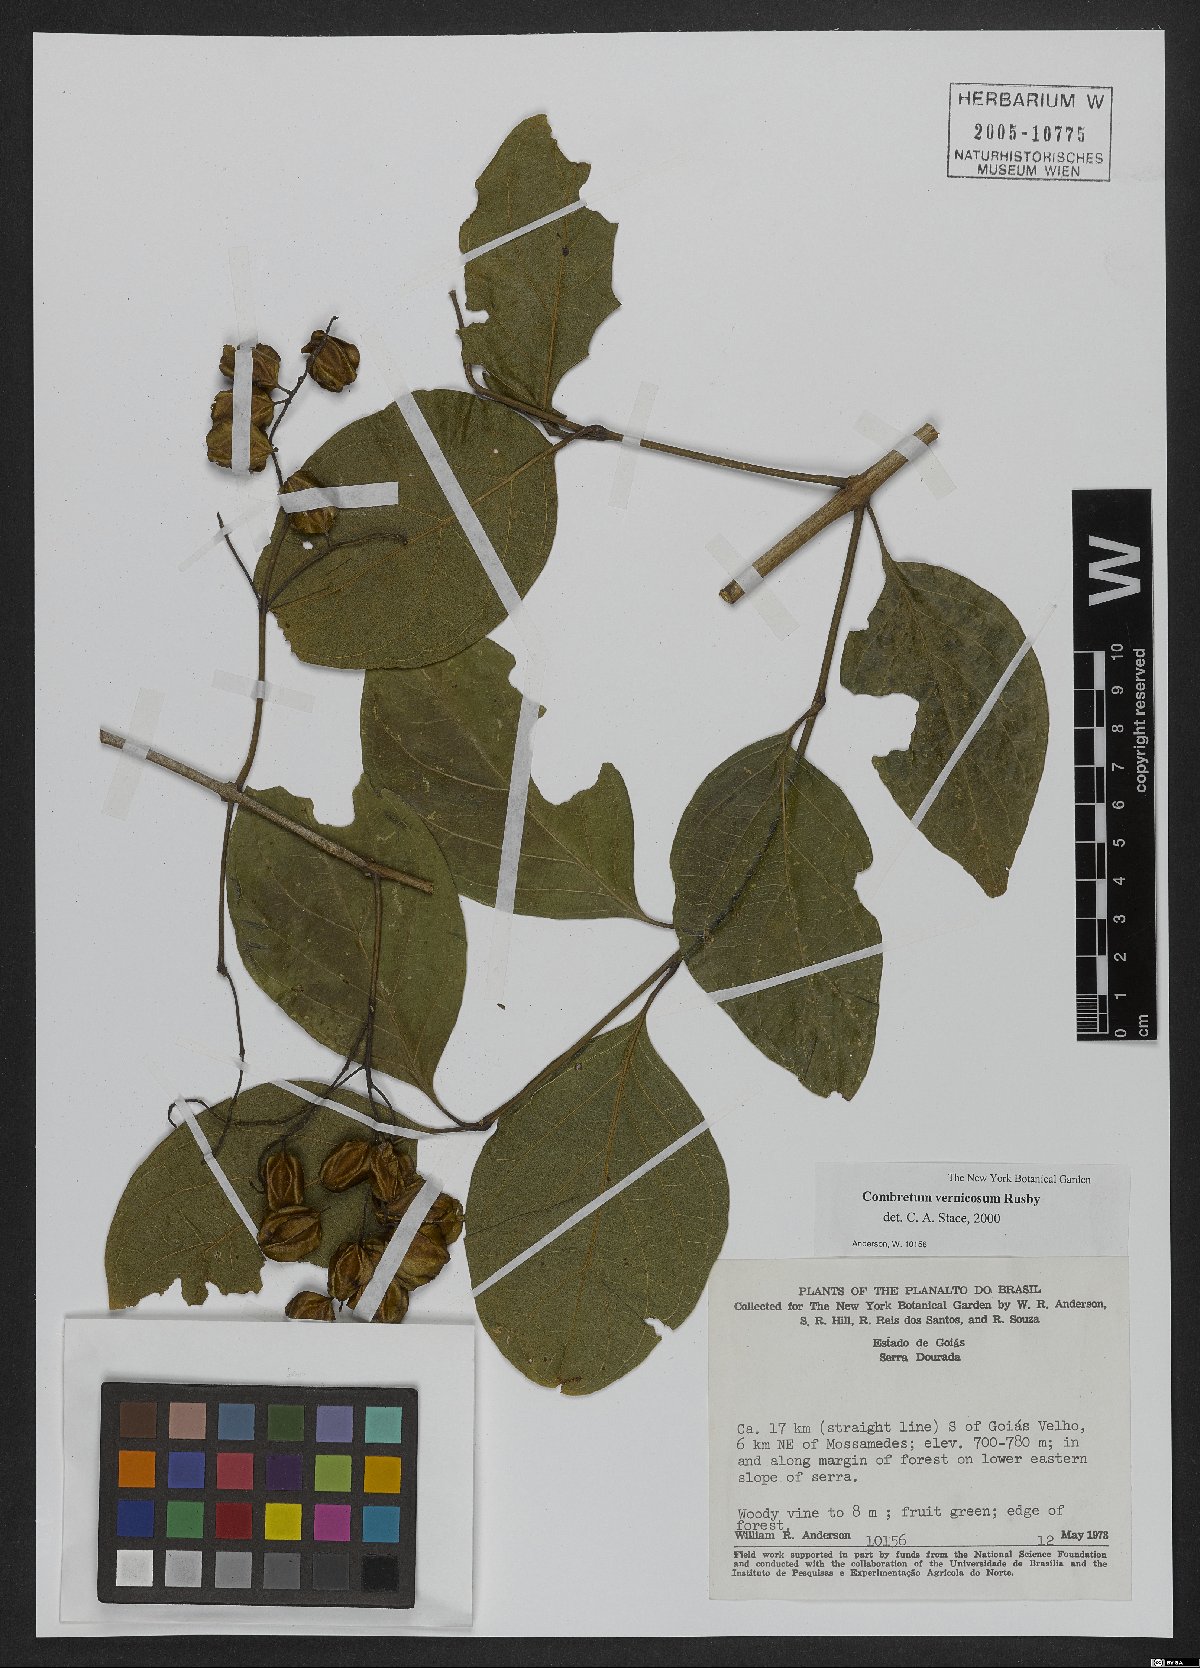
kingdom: Plantae
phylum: Tracheophyta
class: Magnoliopsida
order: Myrtales
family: Combretaceae
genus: Combretum
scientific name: Combretum vernicosum
